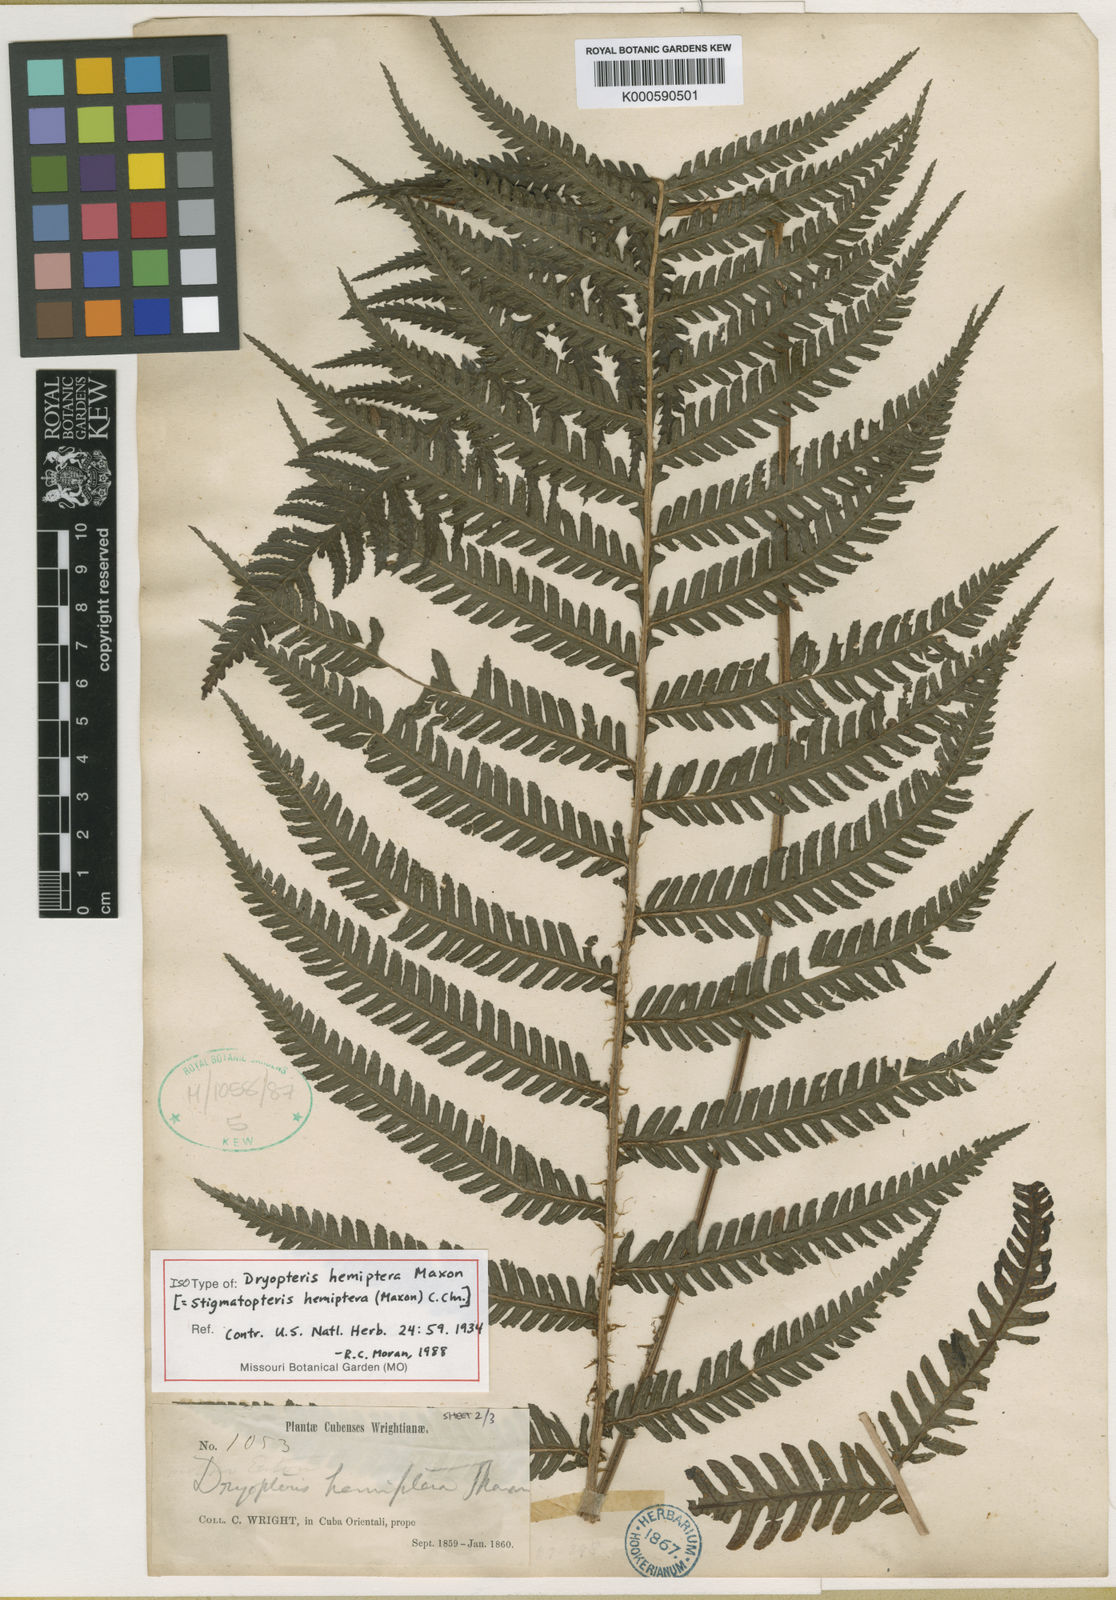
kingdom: Plantae
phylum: Tracheophyta
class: Polypodiopsida
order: Polypodiales
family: Dryopteridaceae
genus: Stigmatopteris
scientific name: Stigmatopteris gemmipara
